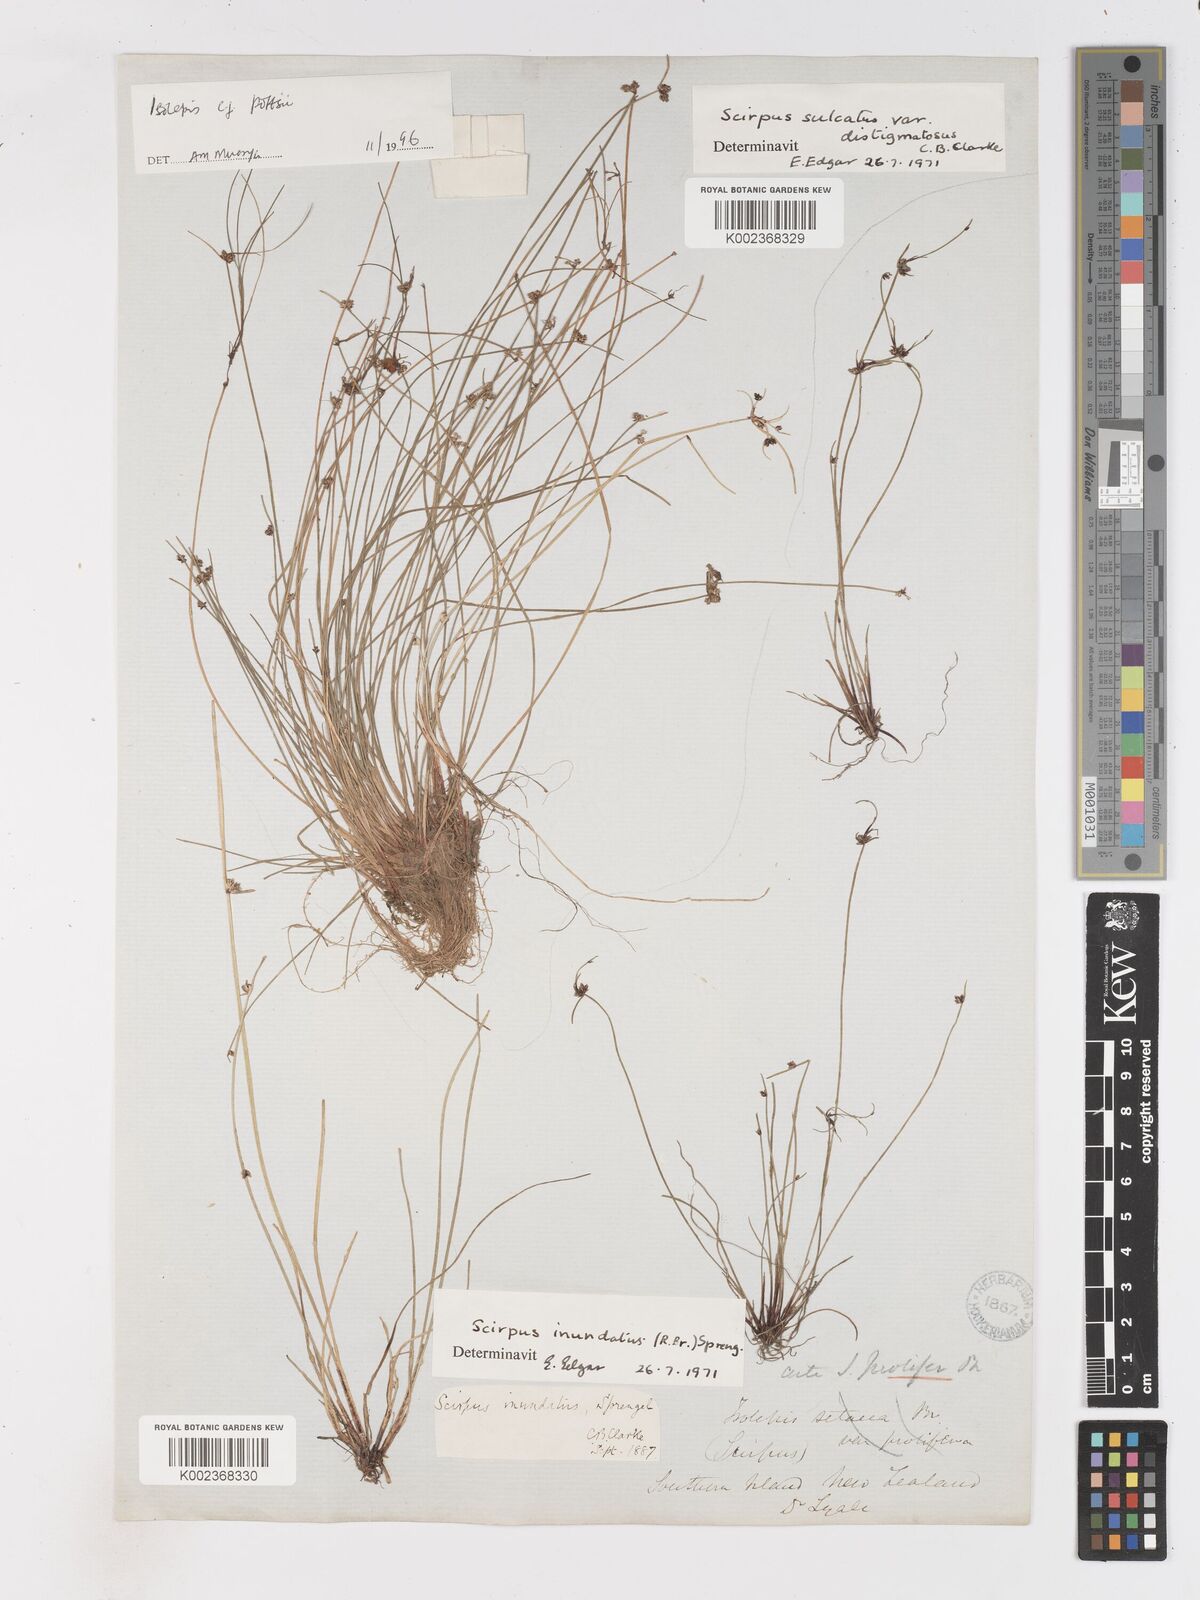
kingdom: Plantae
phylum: Tracheophyta
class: Liliopsida
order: Poales
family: Cyperaceae
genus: Isolepis
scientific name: Isolepis pottsii
